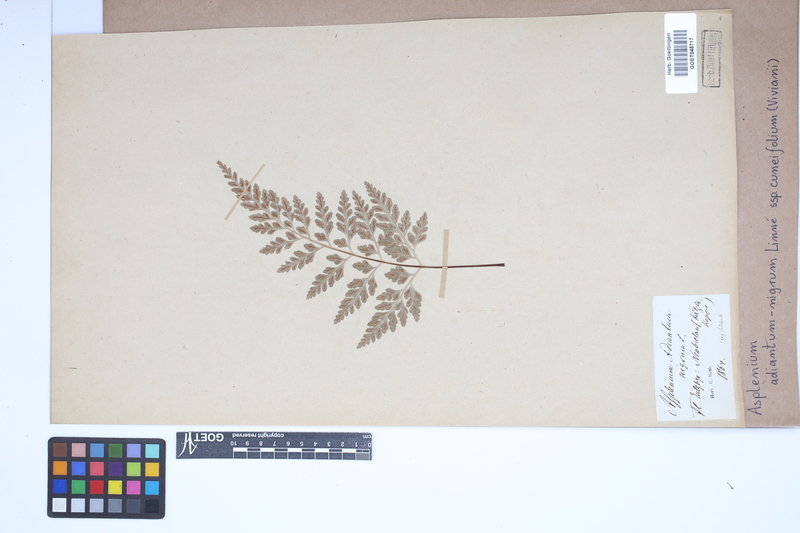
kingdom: Plantae
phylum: Tracheophyta
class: Polypodiopsida
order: Polypodiales
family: Aspleniaceae
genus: Asplenium
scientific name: Asplenium cuneifolium
